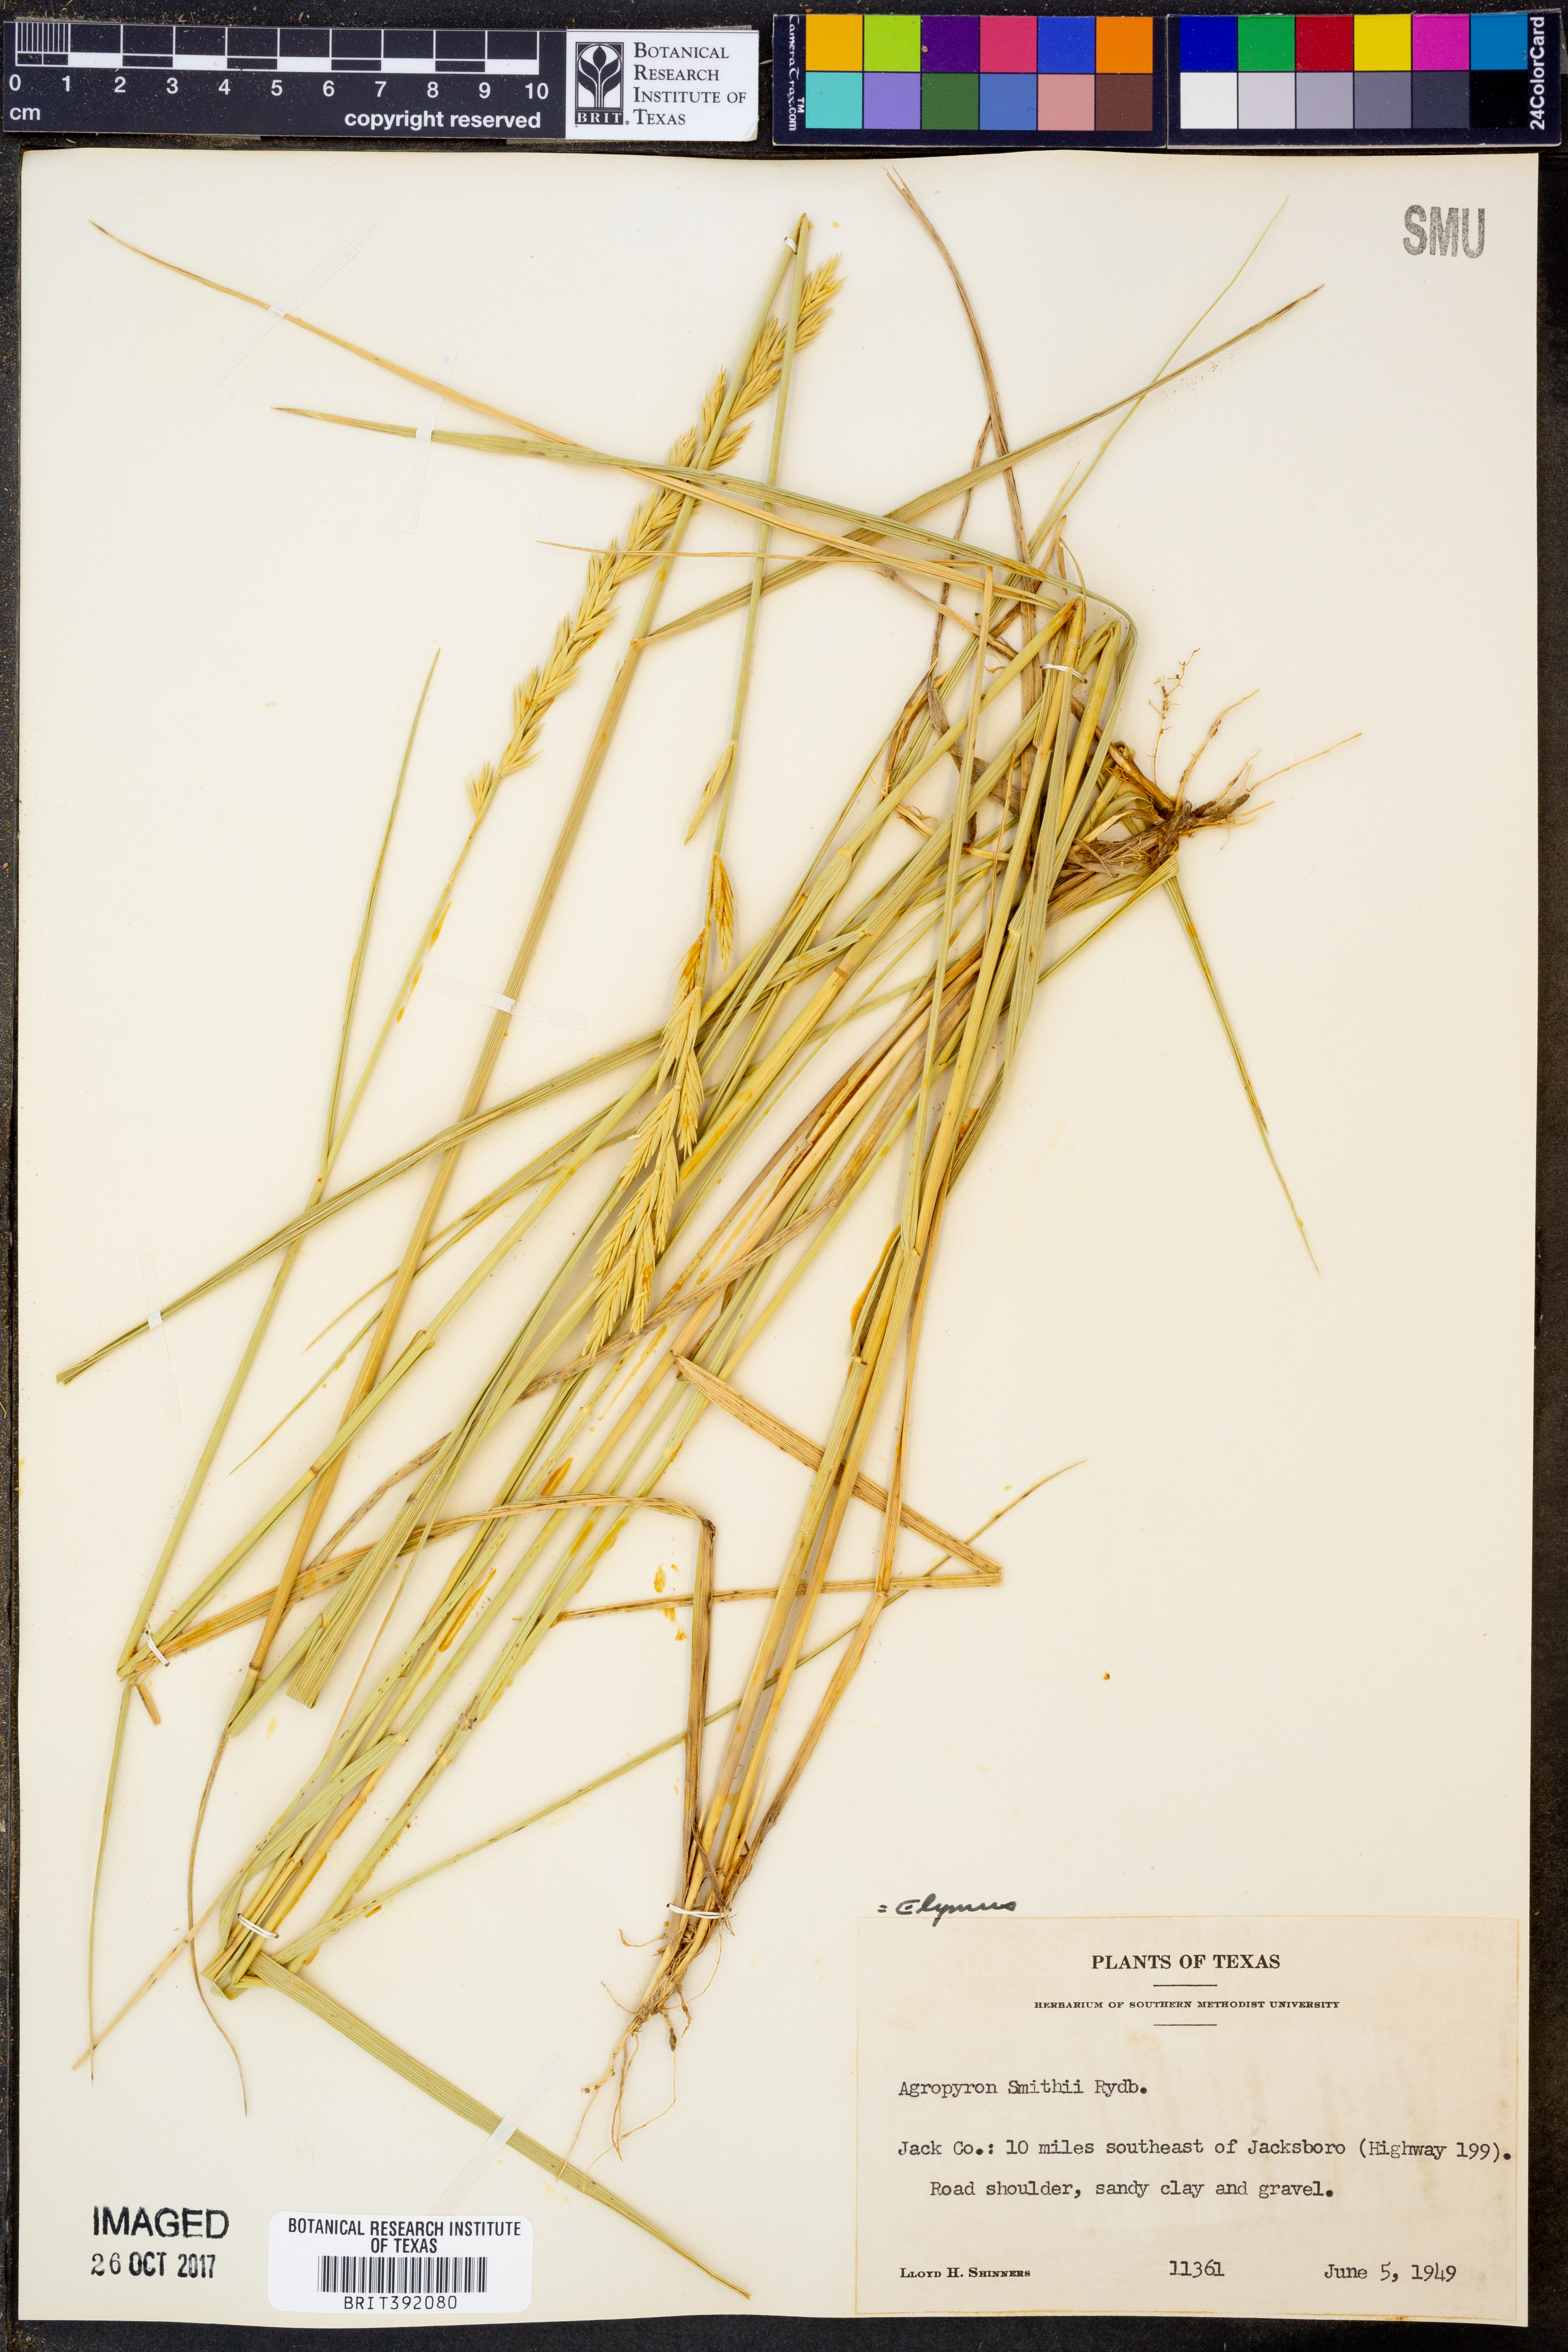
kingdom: Plantae
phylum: Tracheophyta
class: Liliopsida
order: Poales
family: Poaceae
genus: Elymus
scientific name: Elymus smithii
